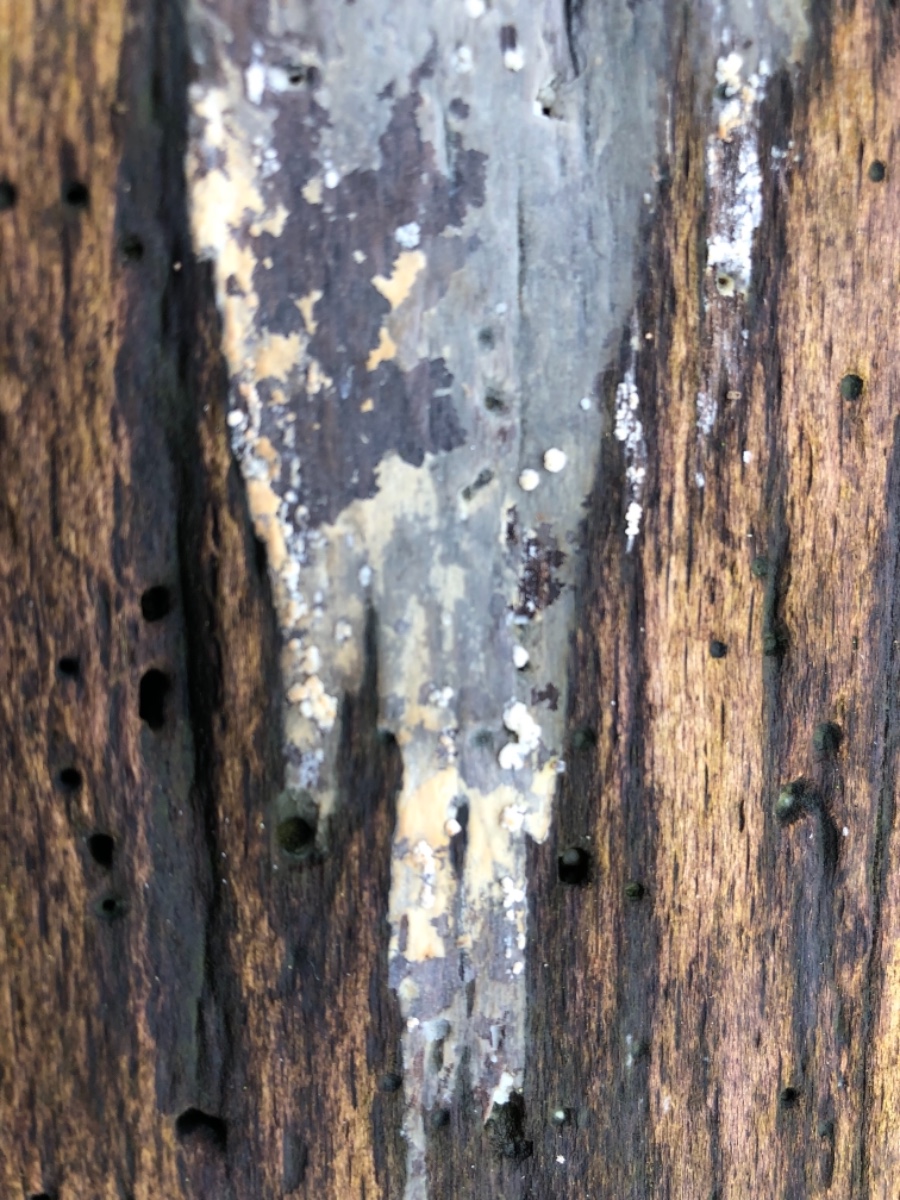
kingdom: Fungi
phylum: Basidiomycota
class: Agaricomycetes
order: Cantharellales
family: Hydnaceae
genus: Sistotrema
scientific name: Sistotrema resinicystidium
